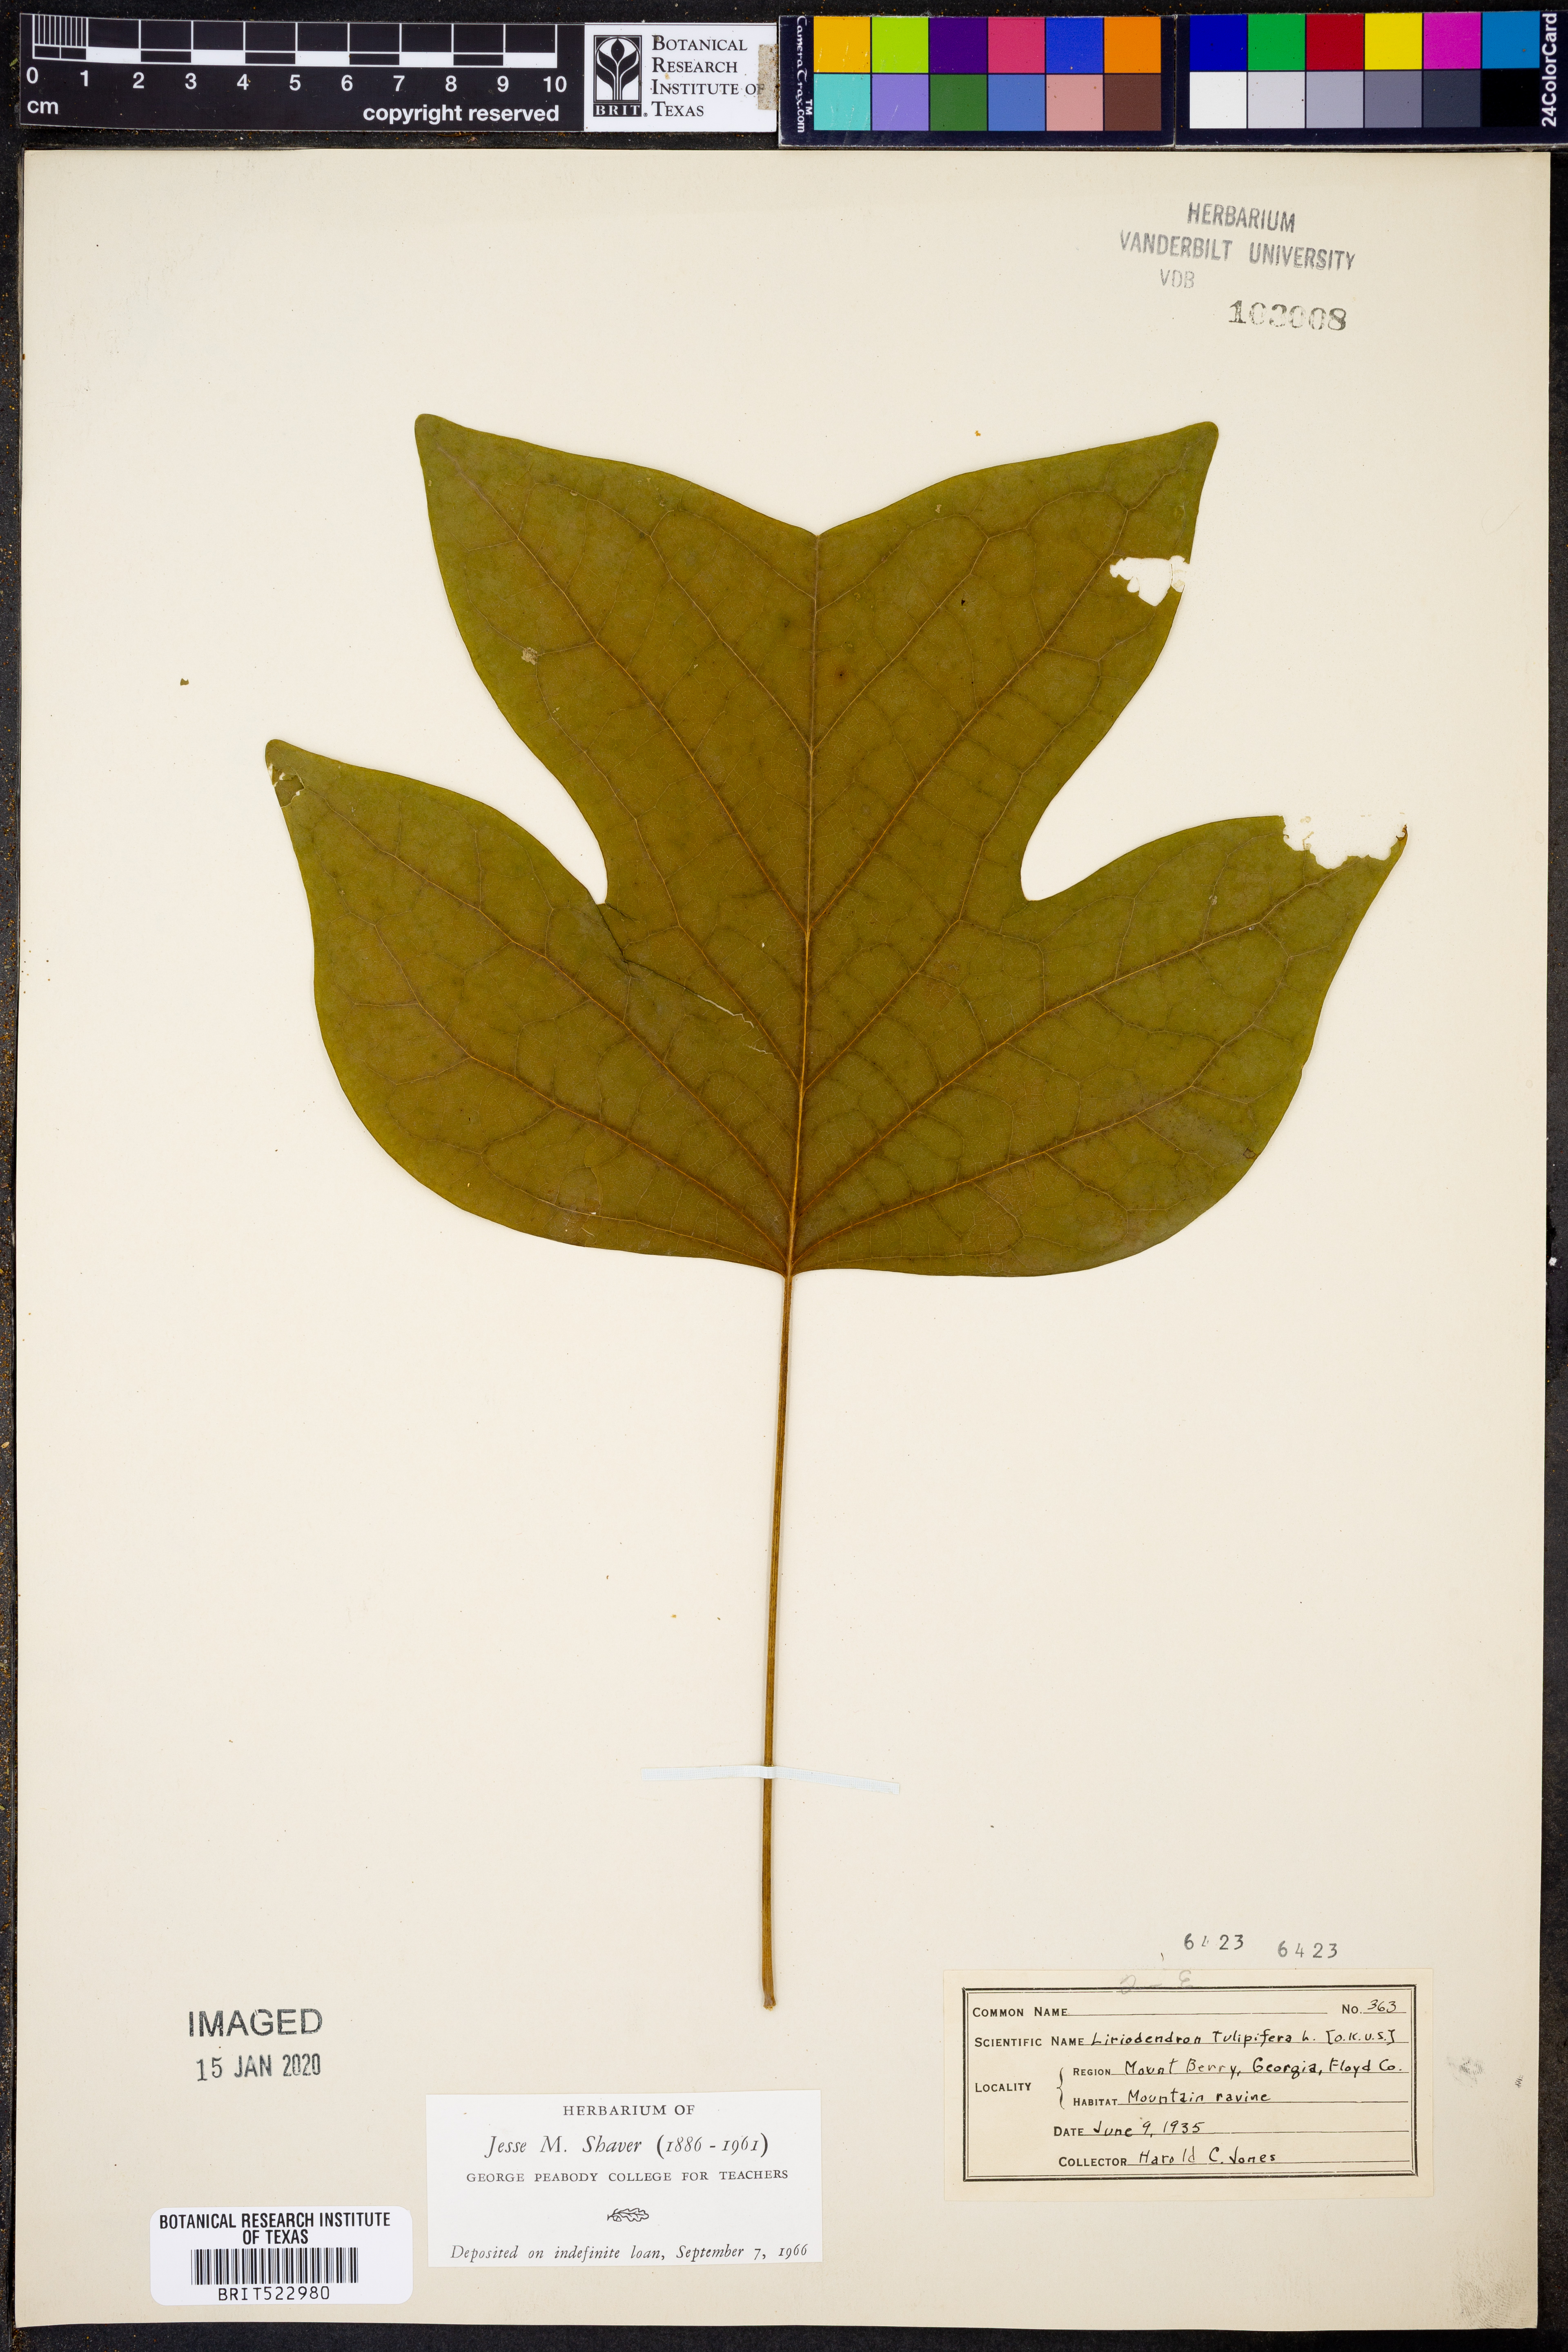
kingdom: Plantae
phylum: Tracheophyta
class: Magnoliopsida
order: Magnoliales
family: Magnoliaceae
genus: Liriodendron
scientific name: Liriodendron tulipifera
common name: Tulip tree
